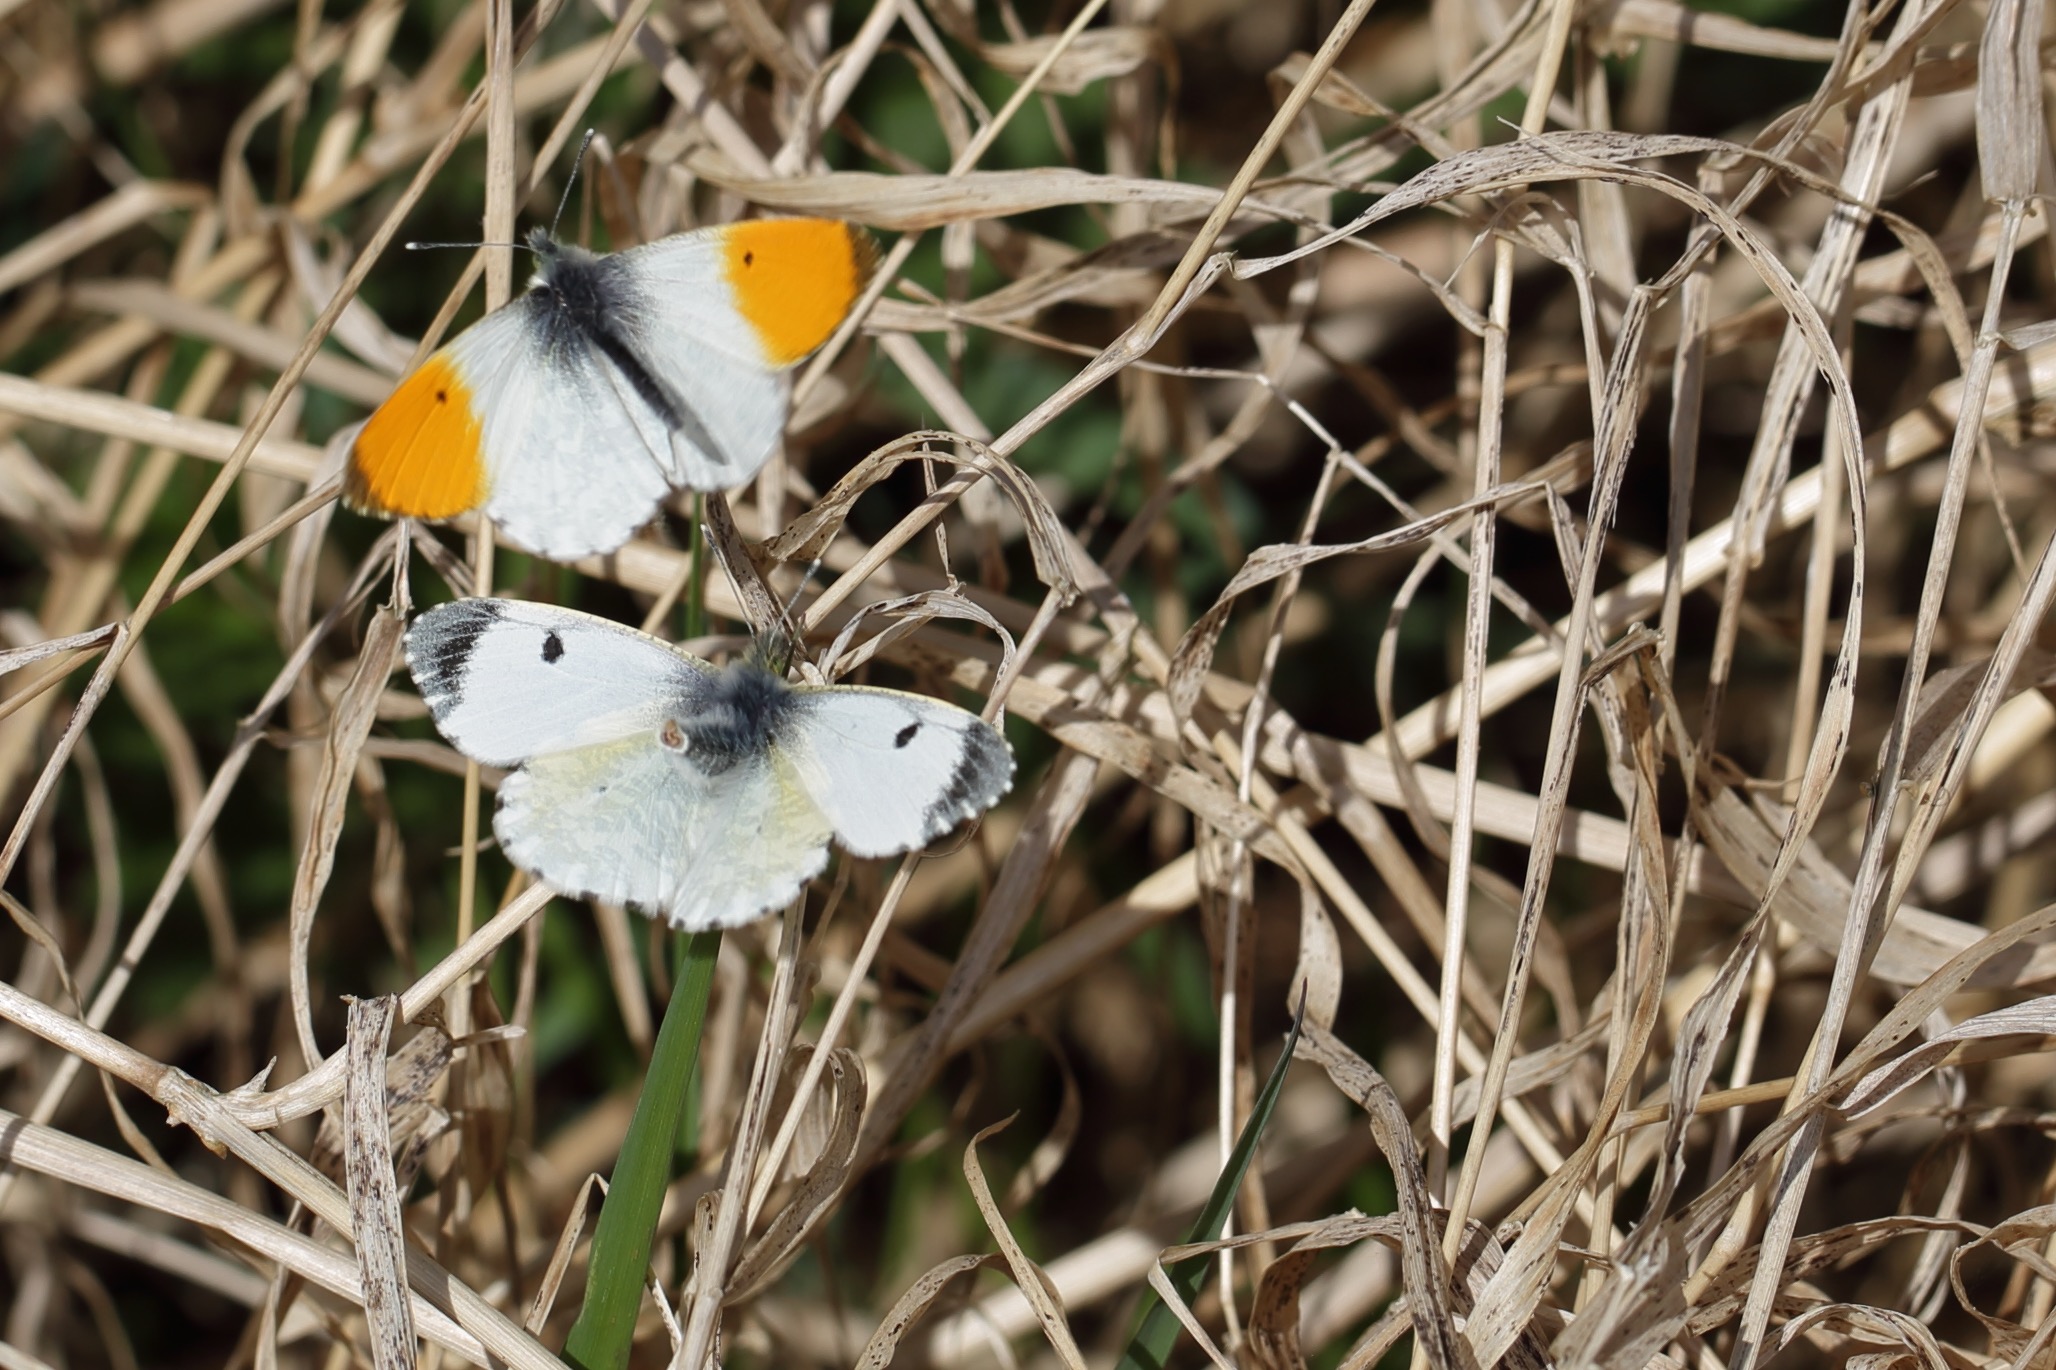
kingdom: Animalia
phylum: Arthropoda
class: Insecta
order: Lepidoptera
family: Pieridae
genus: Anthocharis
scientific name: Anthocharis cardamines
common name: Aurora
